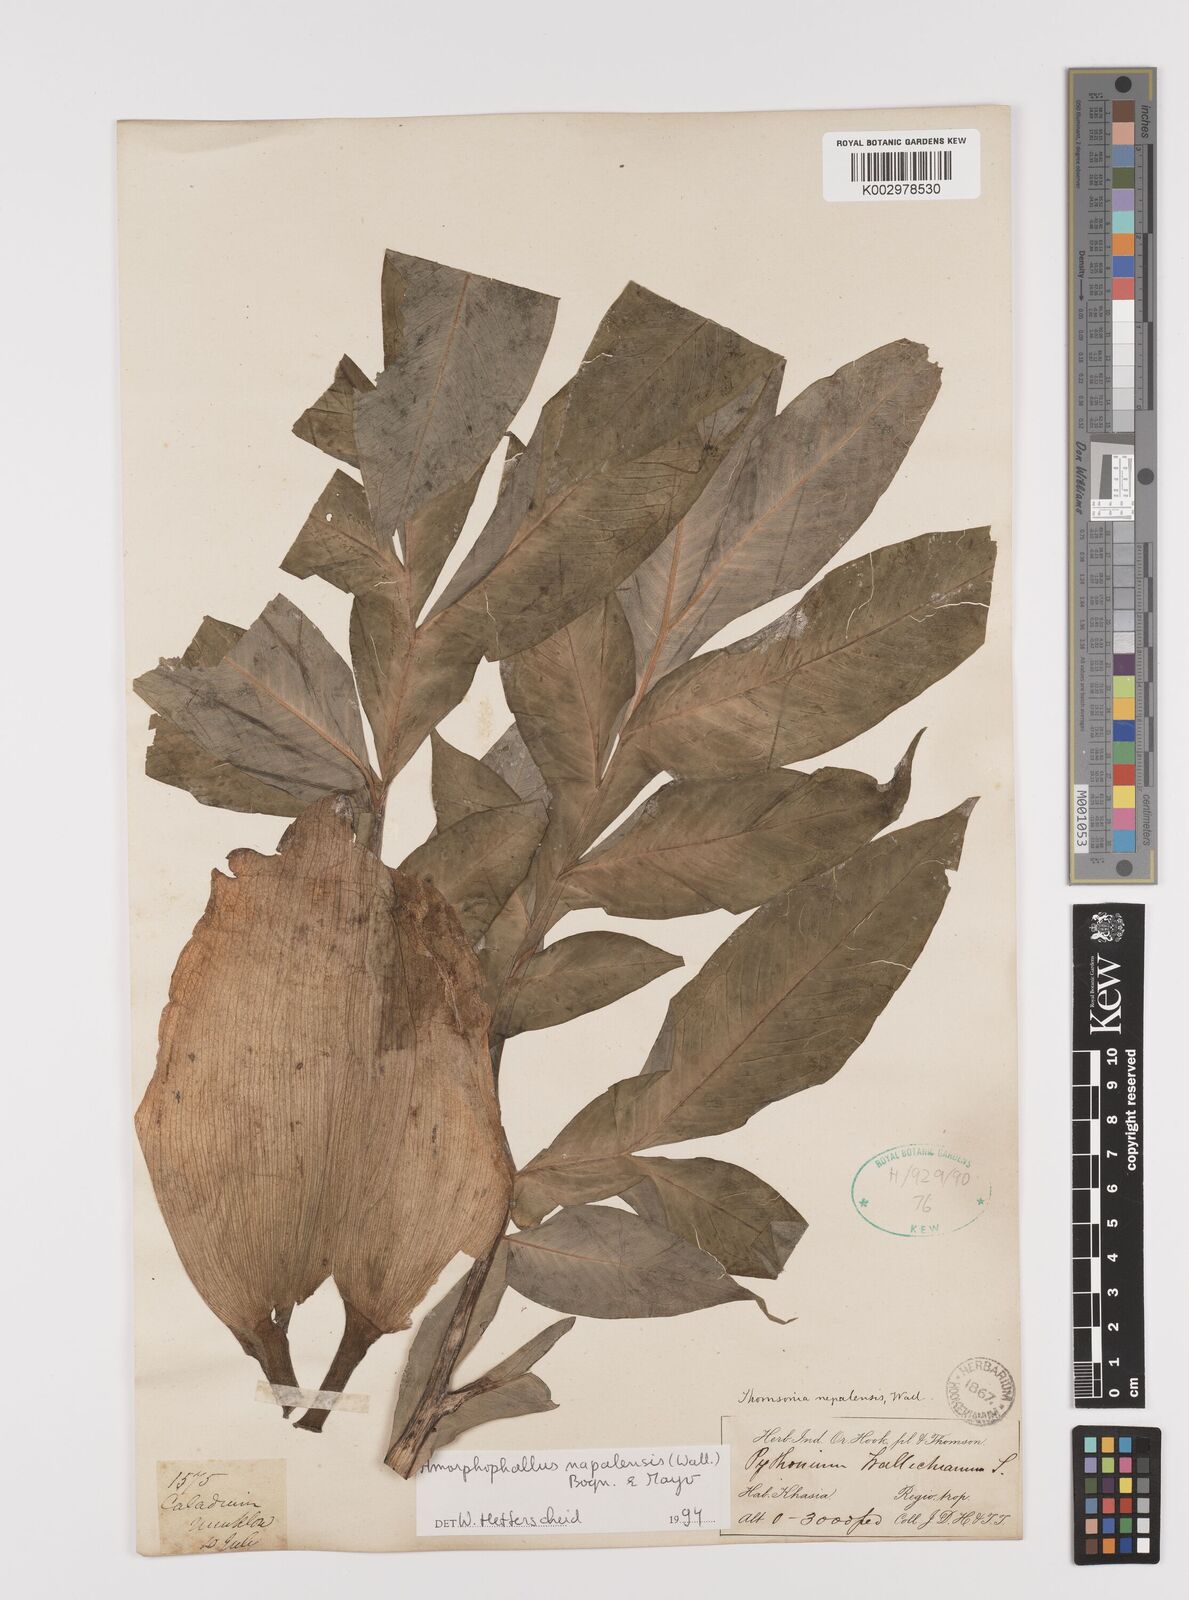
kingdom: Plantae
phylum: Tracheophyta
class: Liliopsida
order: Alismatales
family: Araceae
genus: Amorphophallus
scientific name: Amorphophallus napalensis
